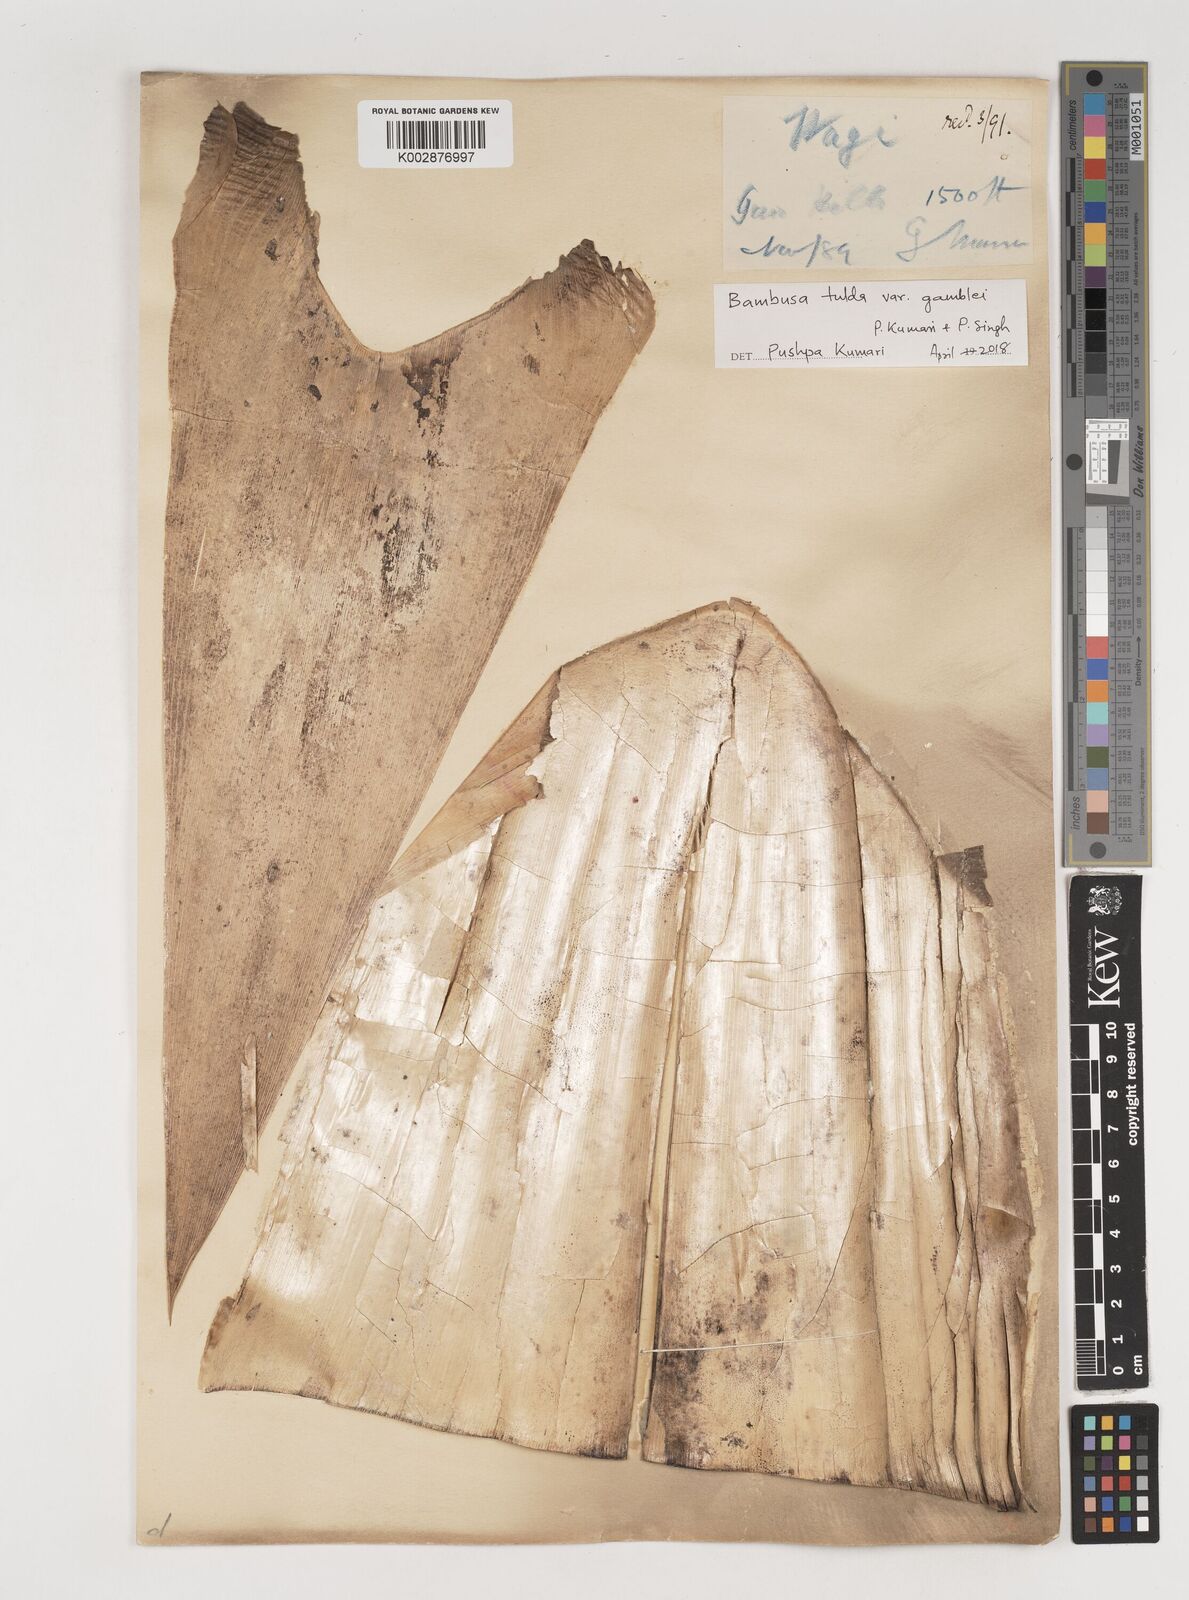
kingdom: Plantae
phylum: Tracheophyta
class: Liliopsida
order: Poales
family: Poaceae
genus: Bambusa
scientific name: Bambusa tulda
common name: Bengal bamboo
